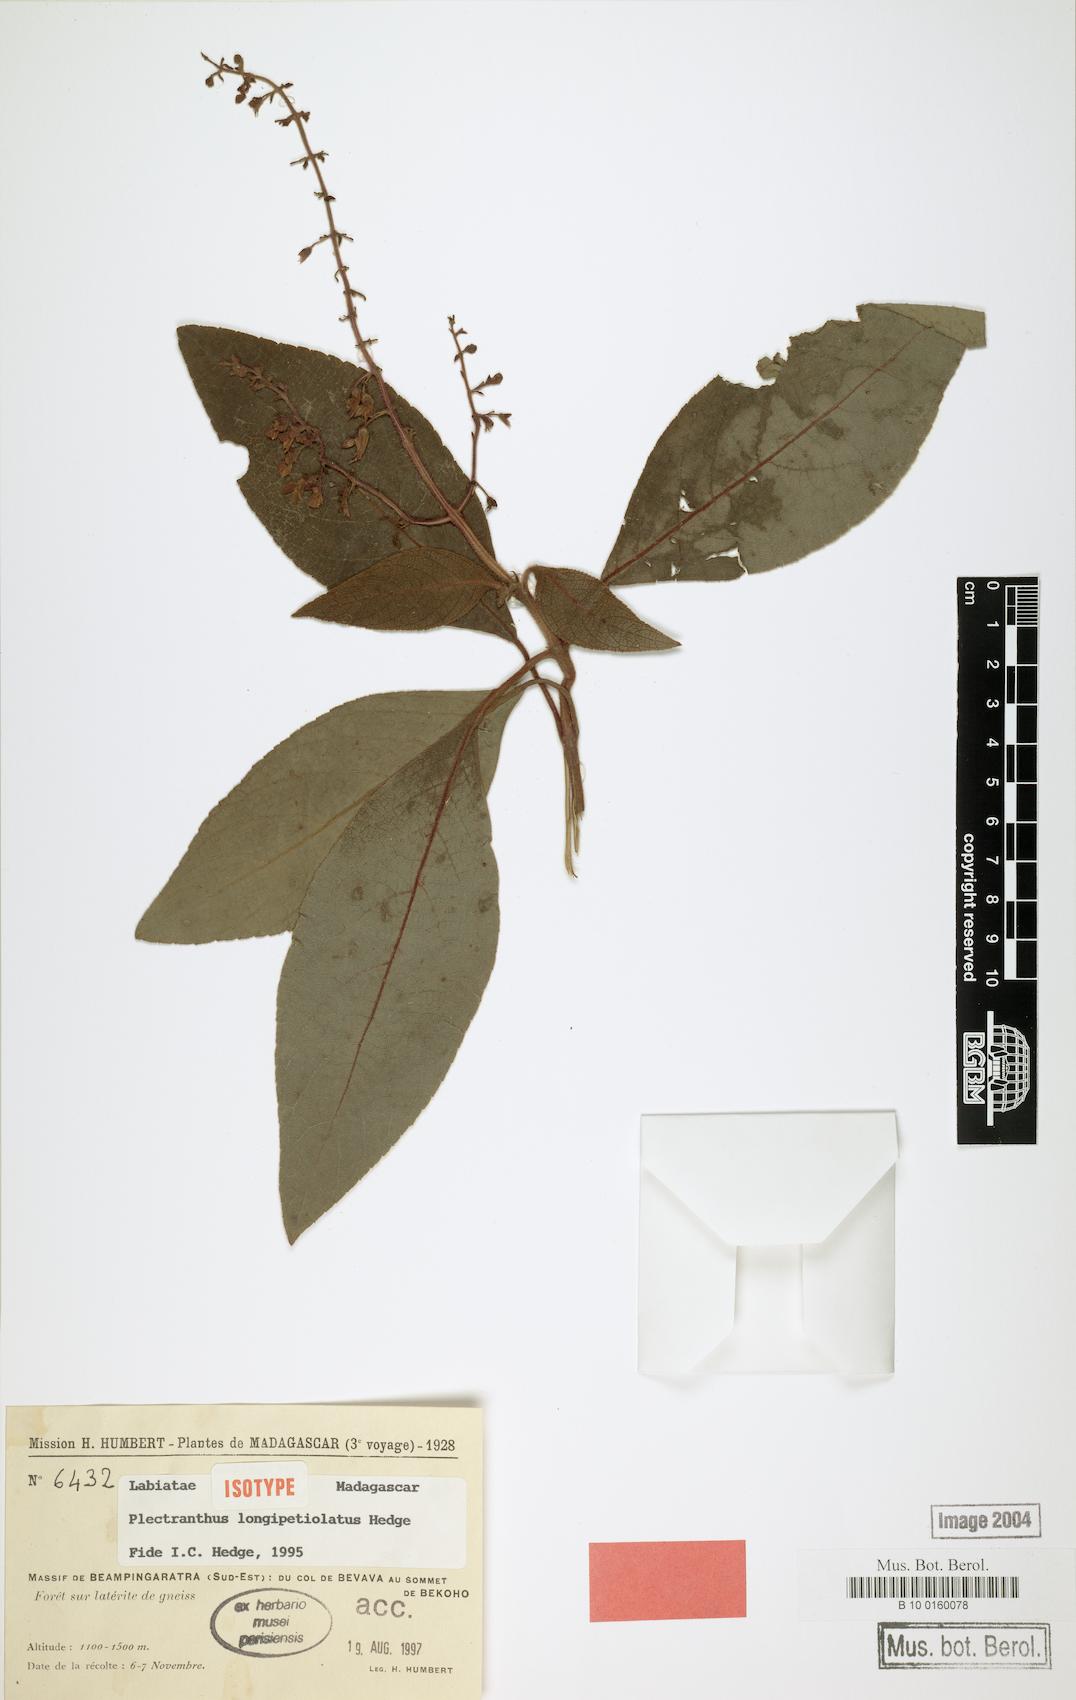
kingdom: Plantae
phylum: Tracheophyta
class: Magnoliopsida
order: Lamiales
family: Lamiaceae
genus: Plectranthus
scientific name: Plectranthus longipetiolatus
